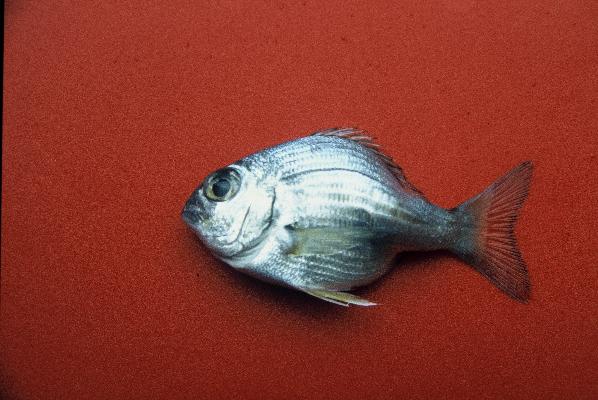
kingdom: Animalia
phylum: Chordata
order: Perciformes
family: Sparidae
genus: Rhabdosargus
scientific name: Rhabdosargus holubi
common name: Cape stumpnose
